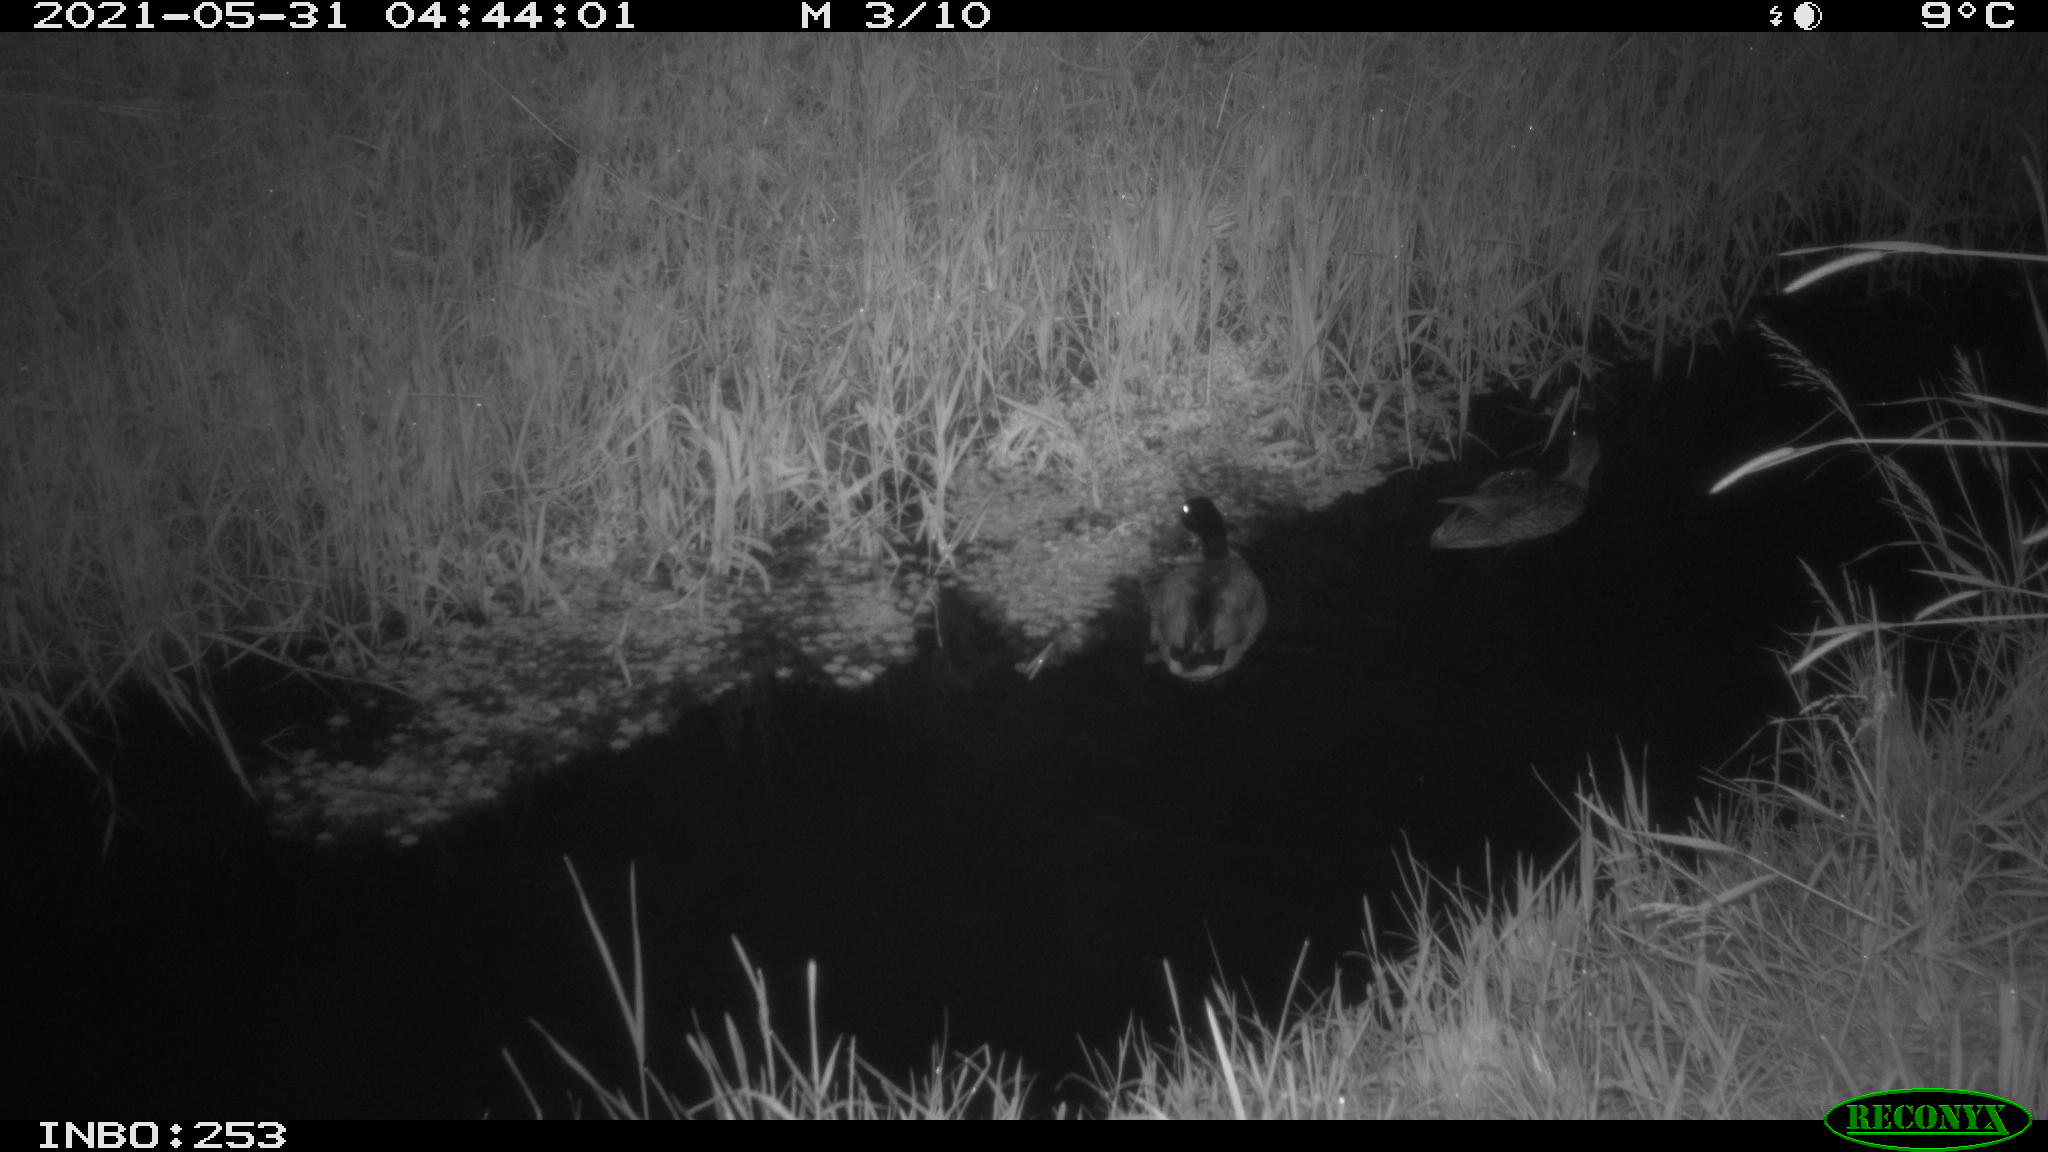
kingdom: Animalia
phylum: Chordata
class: Aves
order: Anseriformes
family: Anatidae
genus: Anas
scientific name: Anas
